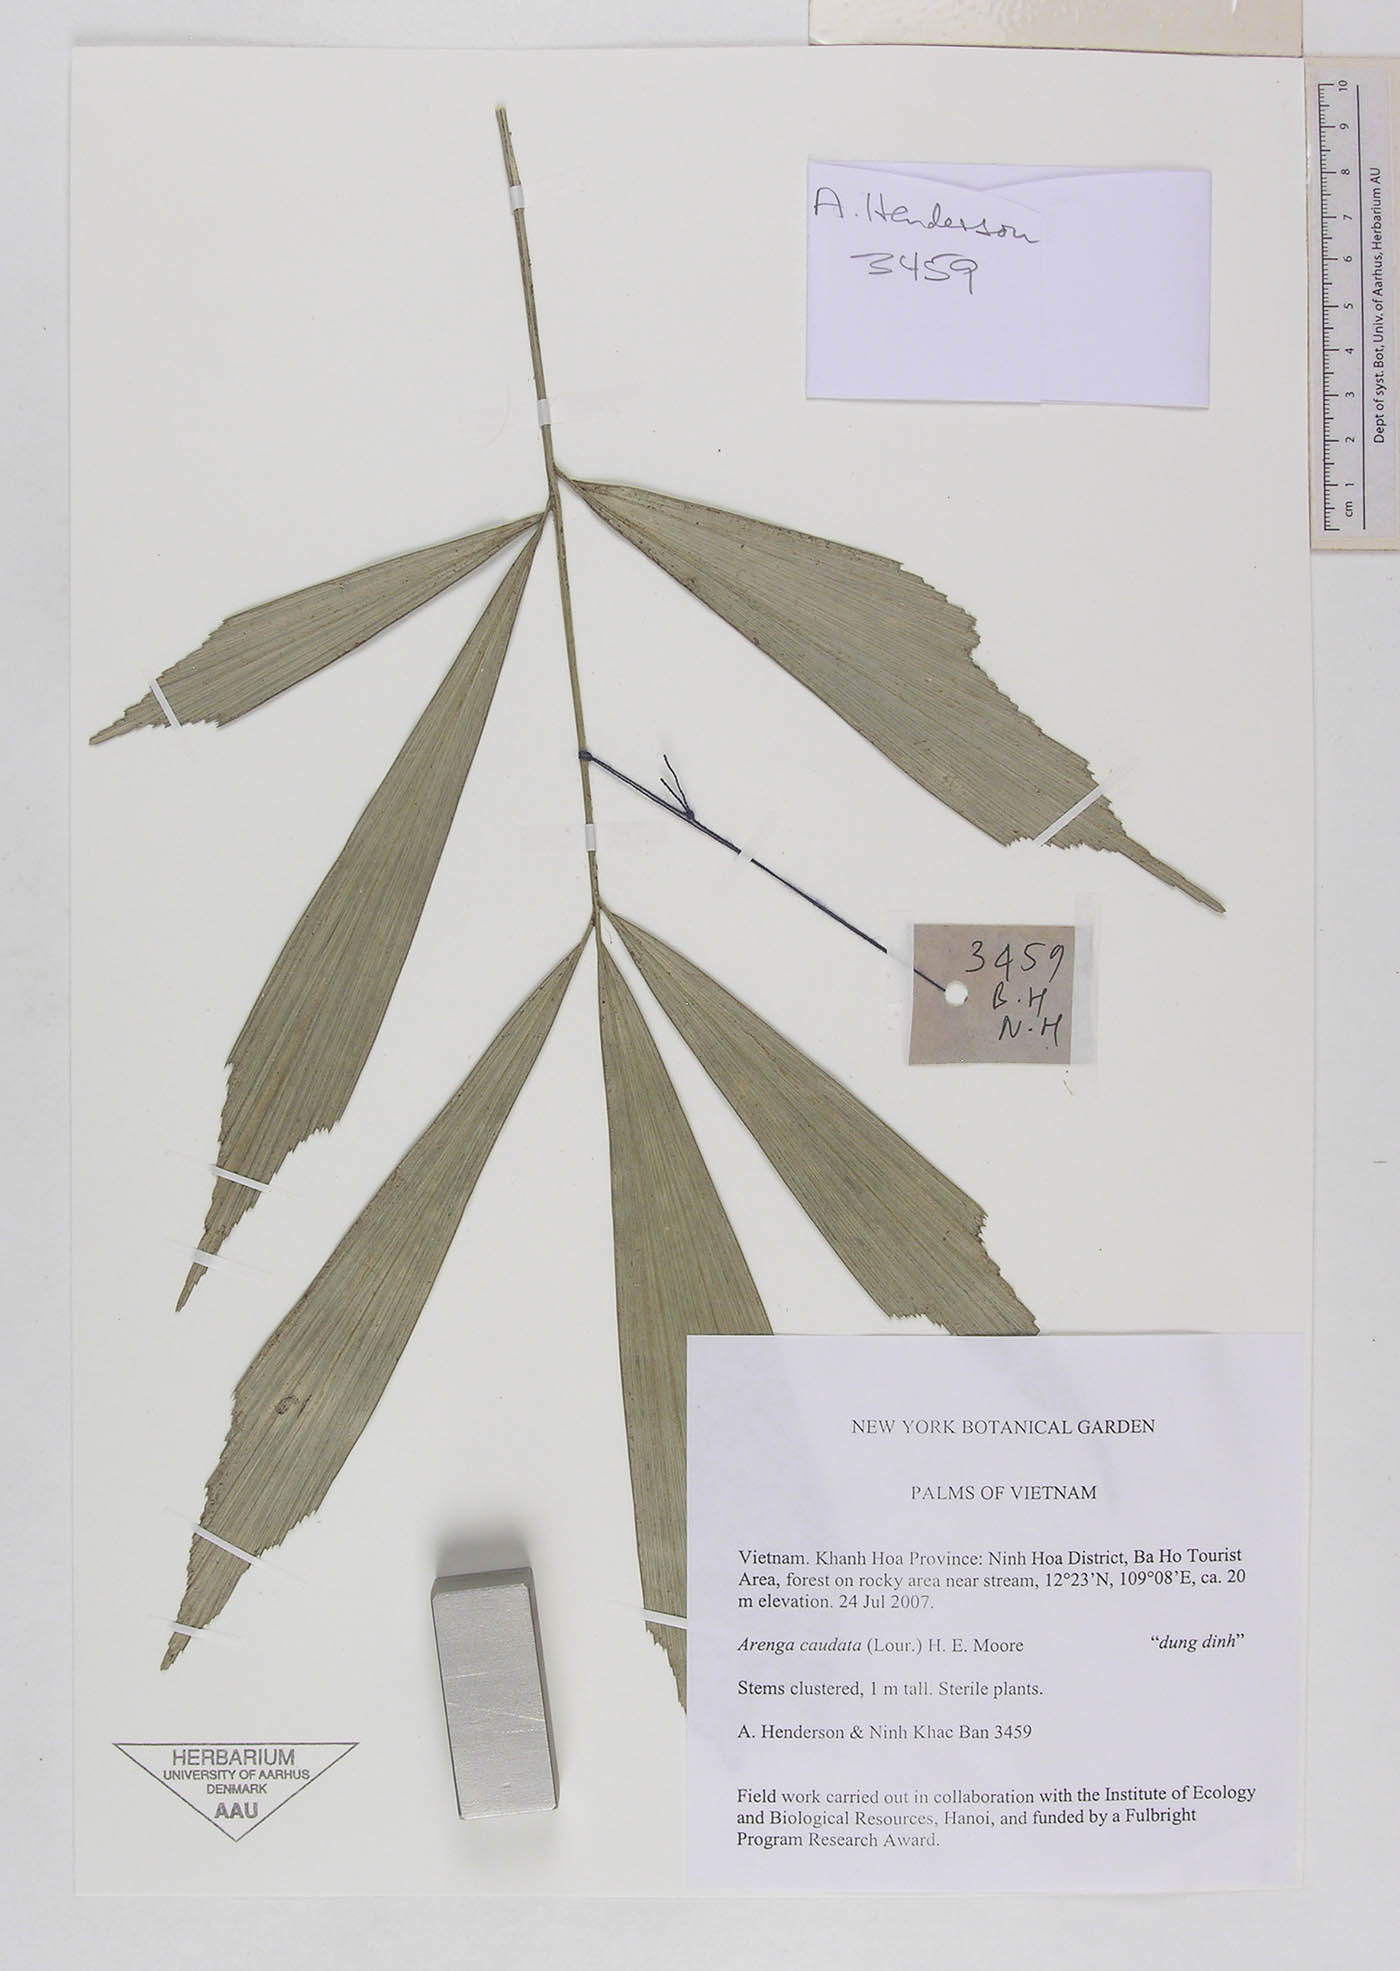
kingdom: Plantae
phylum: Tracheophyta
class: Liliopsida
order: Arecales
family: Arecaceae
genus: Arenga
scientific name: Arenga caudata
